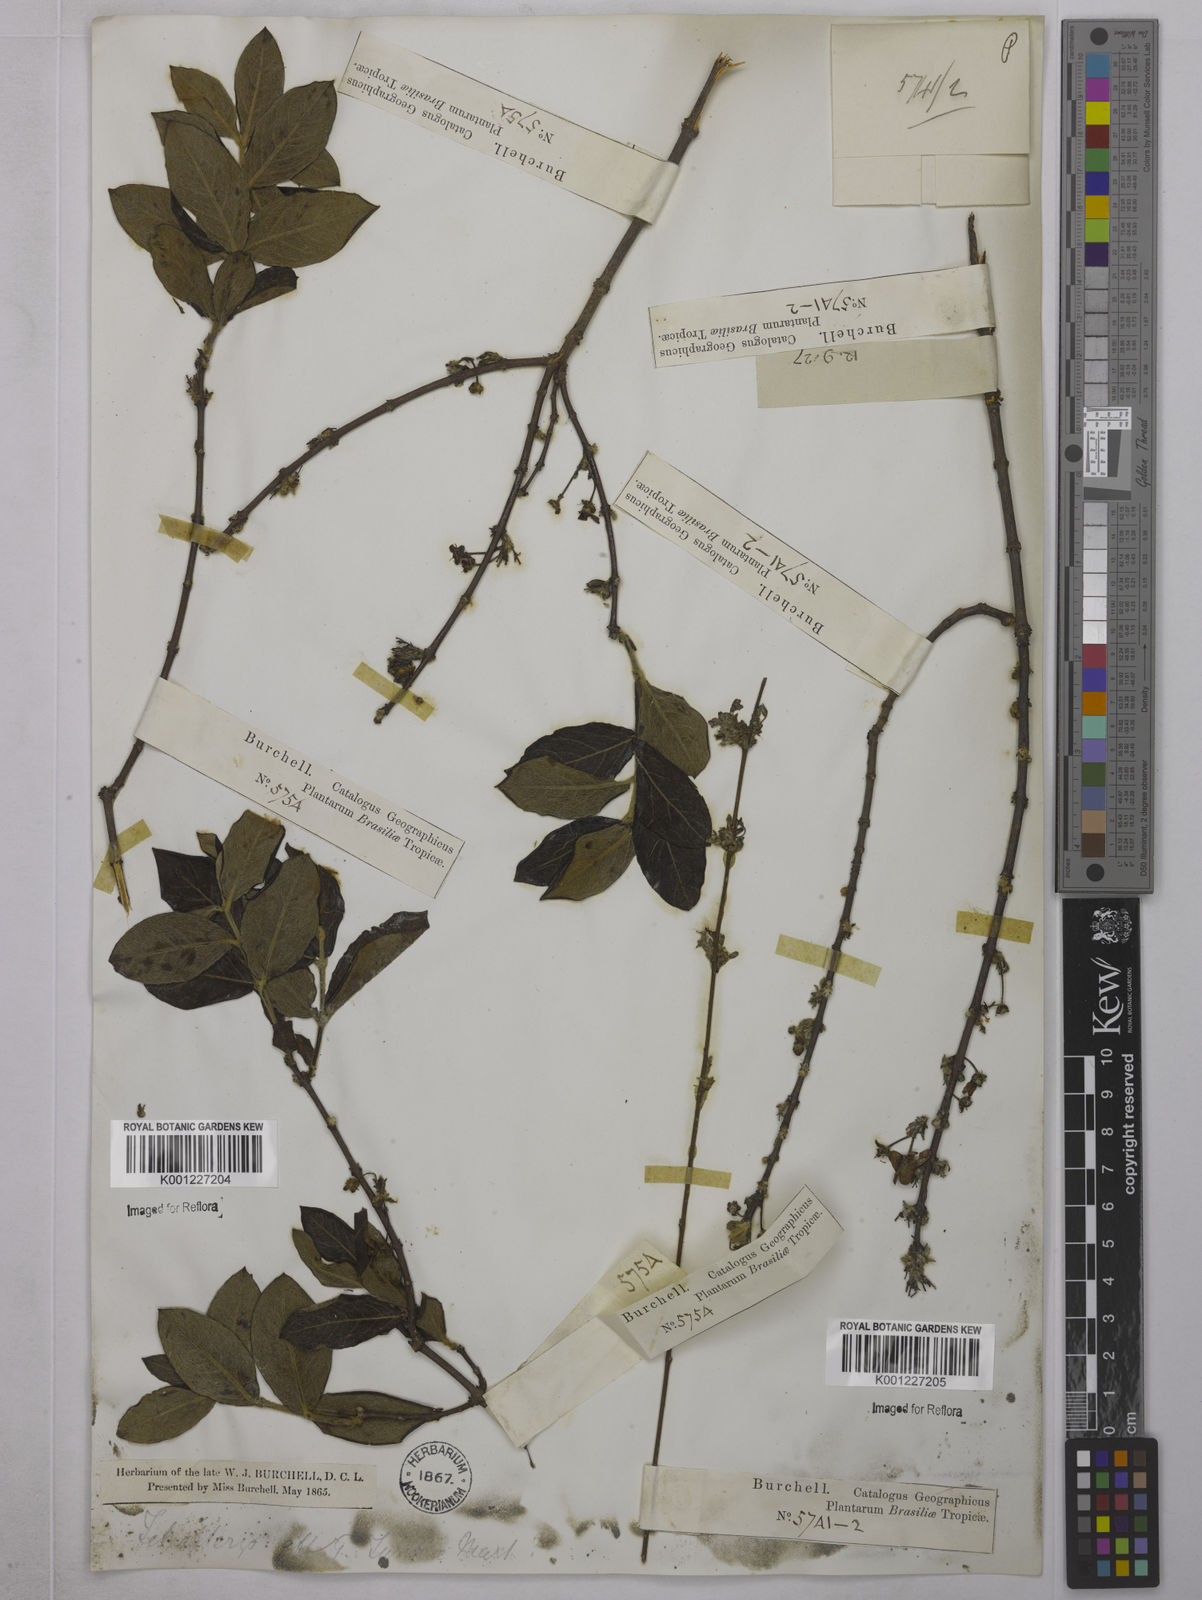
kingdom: Plantae
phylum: Tracheophyta
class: Magnoliopsida
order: Malpighiales
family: Malpighiaceae
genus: Glicophyllum
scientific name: Glicophyllum turnerae
